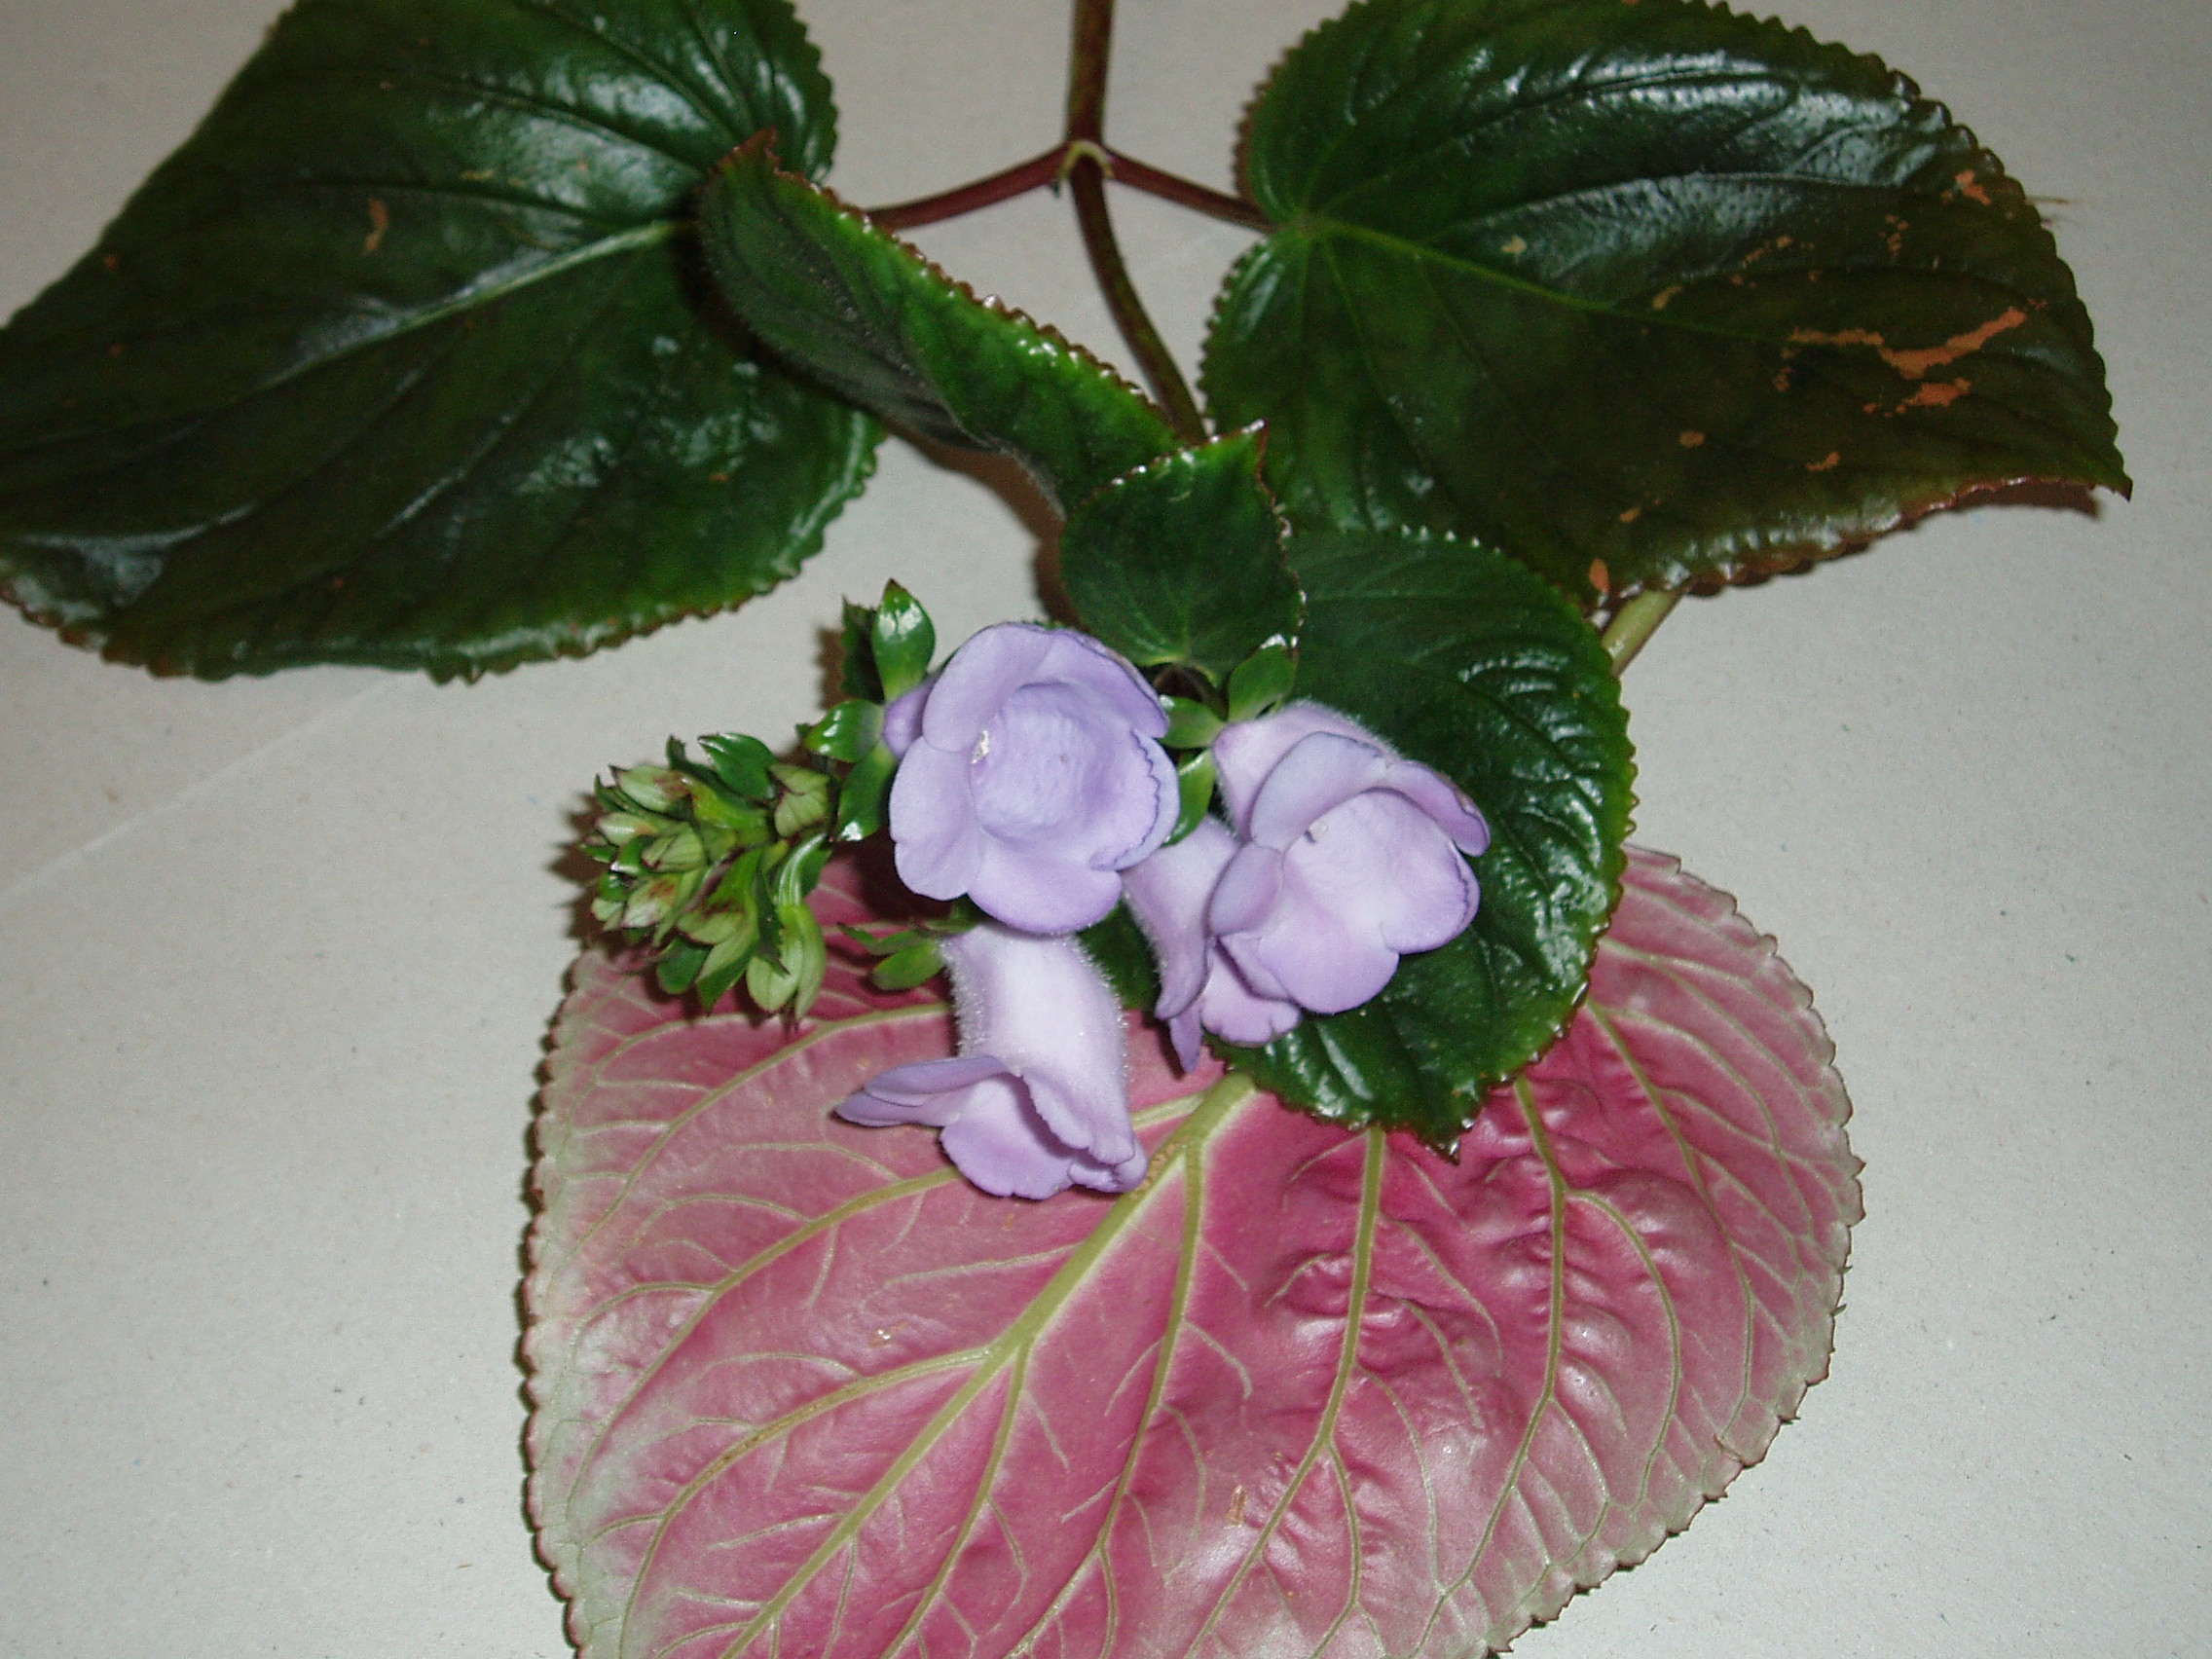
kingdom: Plantae
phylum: Tracheophyta
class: Magnoliopsida
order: Lamiales
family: Gesneriaceae
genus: Gloxinia
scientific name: Gloxinia perennis
